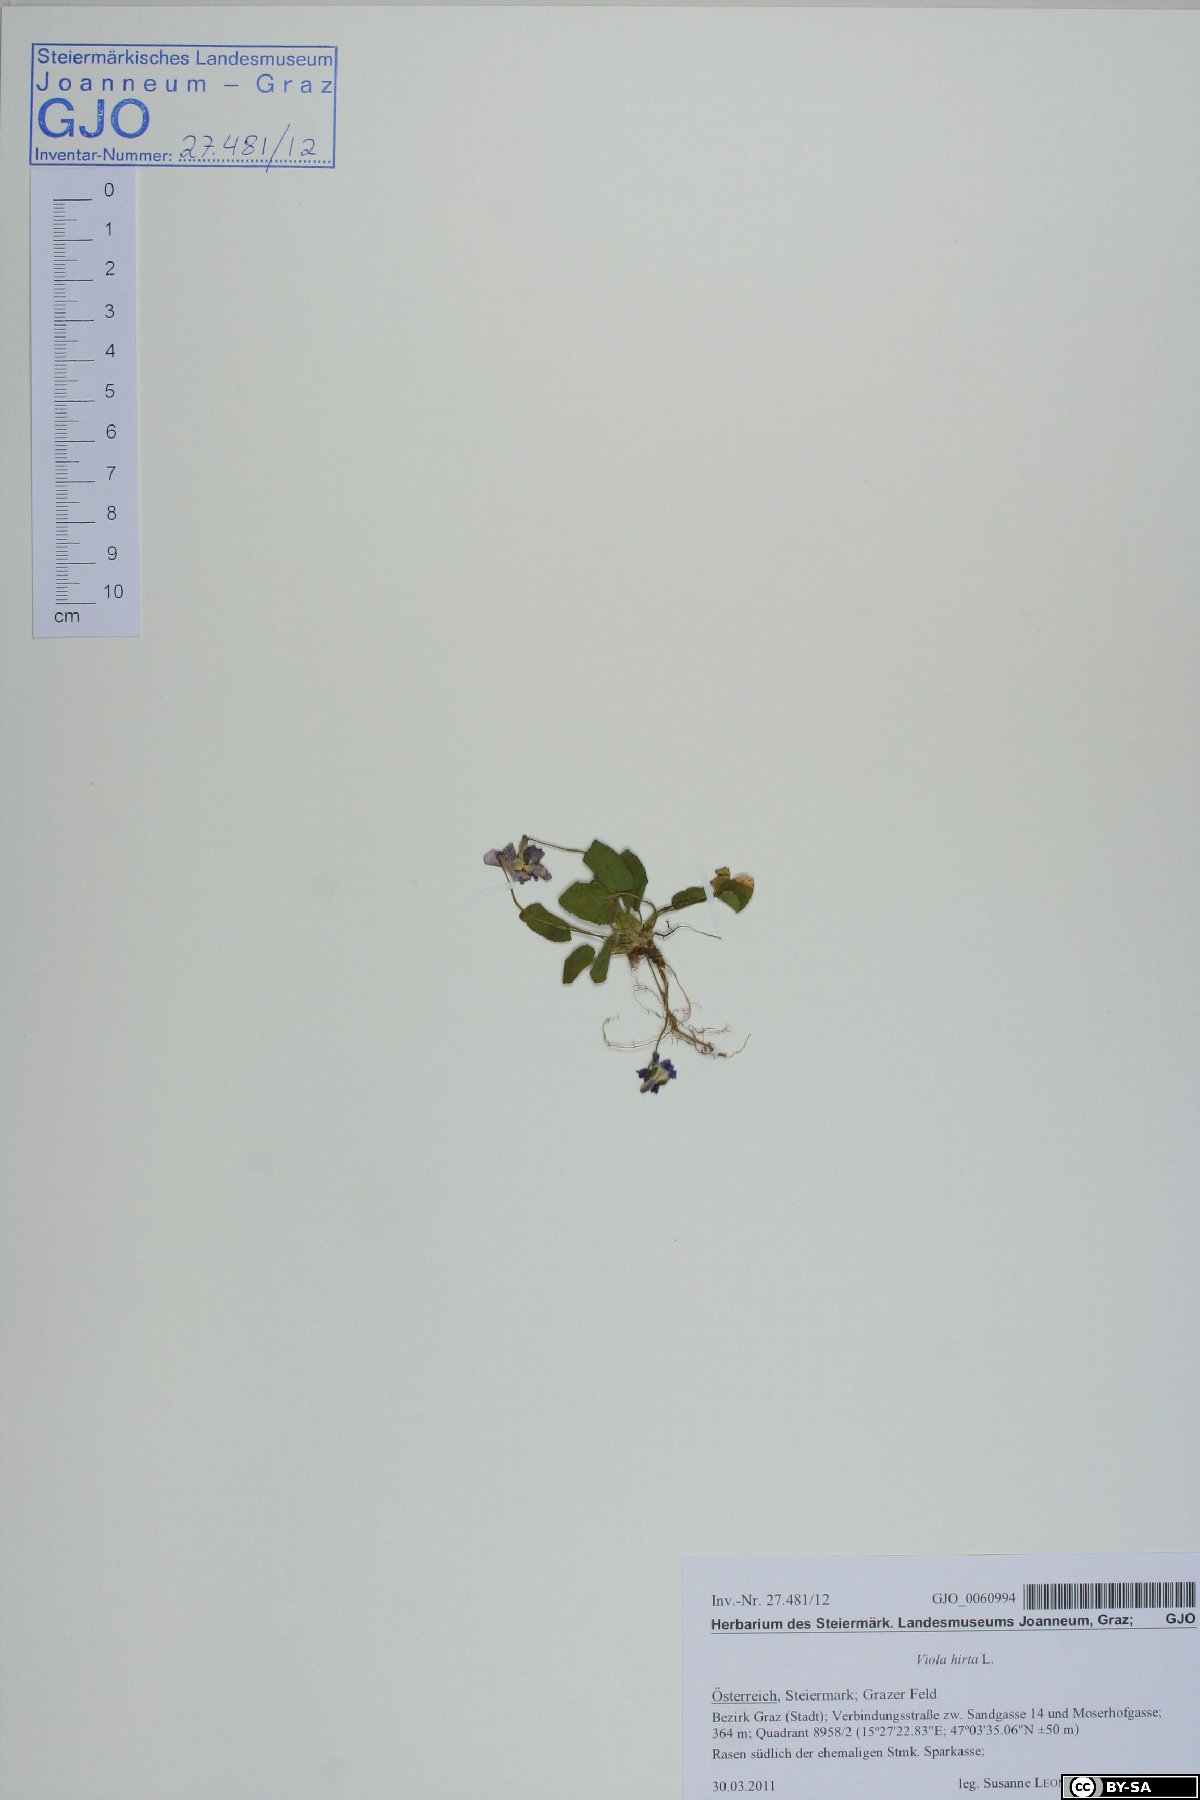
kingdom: Plantae
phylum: Tracheophyta
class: Magnoliopsida
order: Malpighiales
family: Violaceae
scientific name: Violaceae
